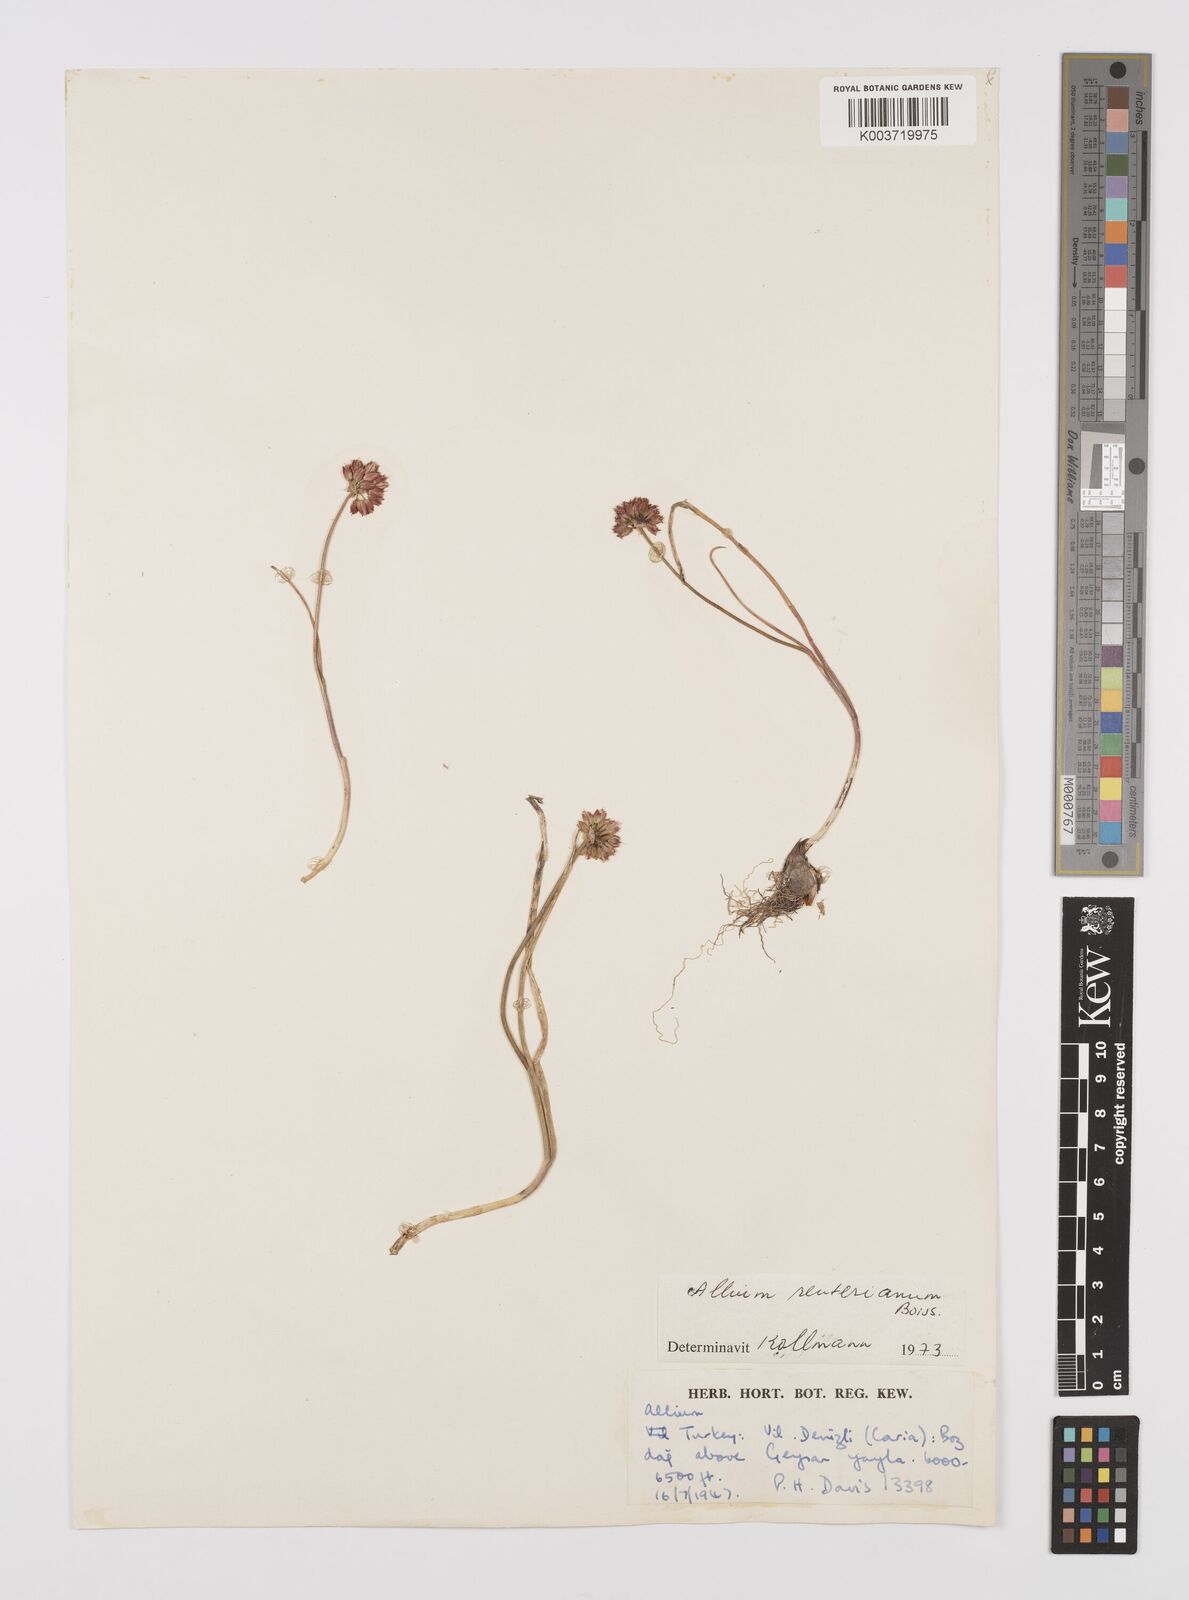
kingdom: Plantae
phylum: Tracheophyta
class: Liliopsida
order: Asparagales
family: Amaryllidaceae
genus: Allium
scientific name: Allium reuterianum
